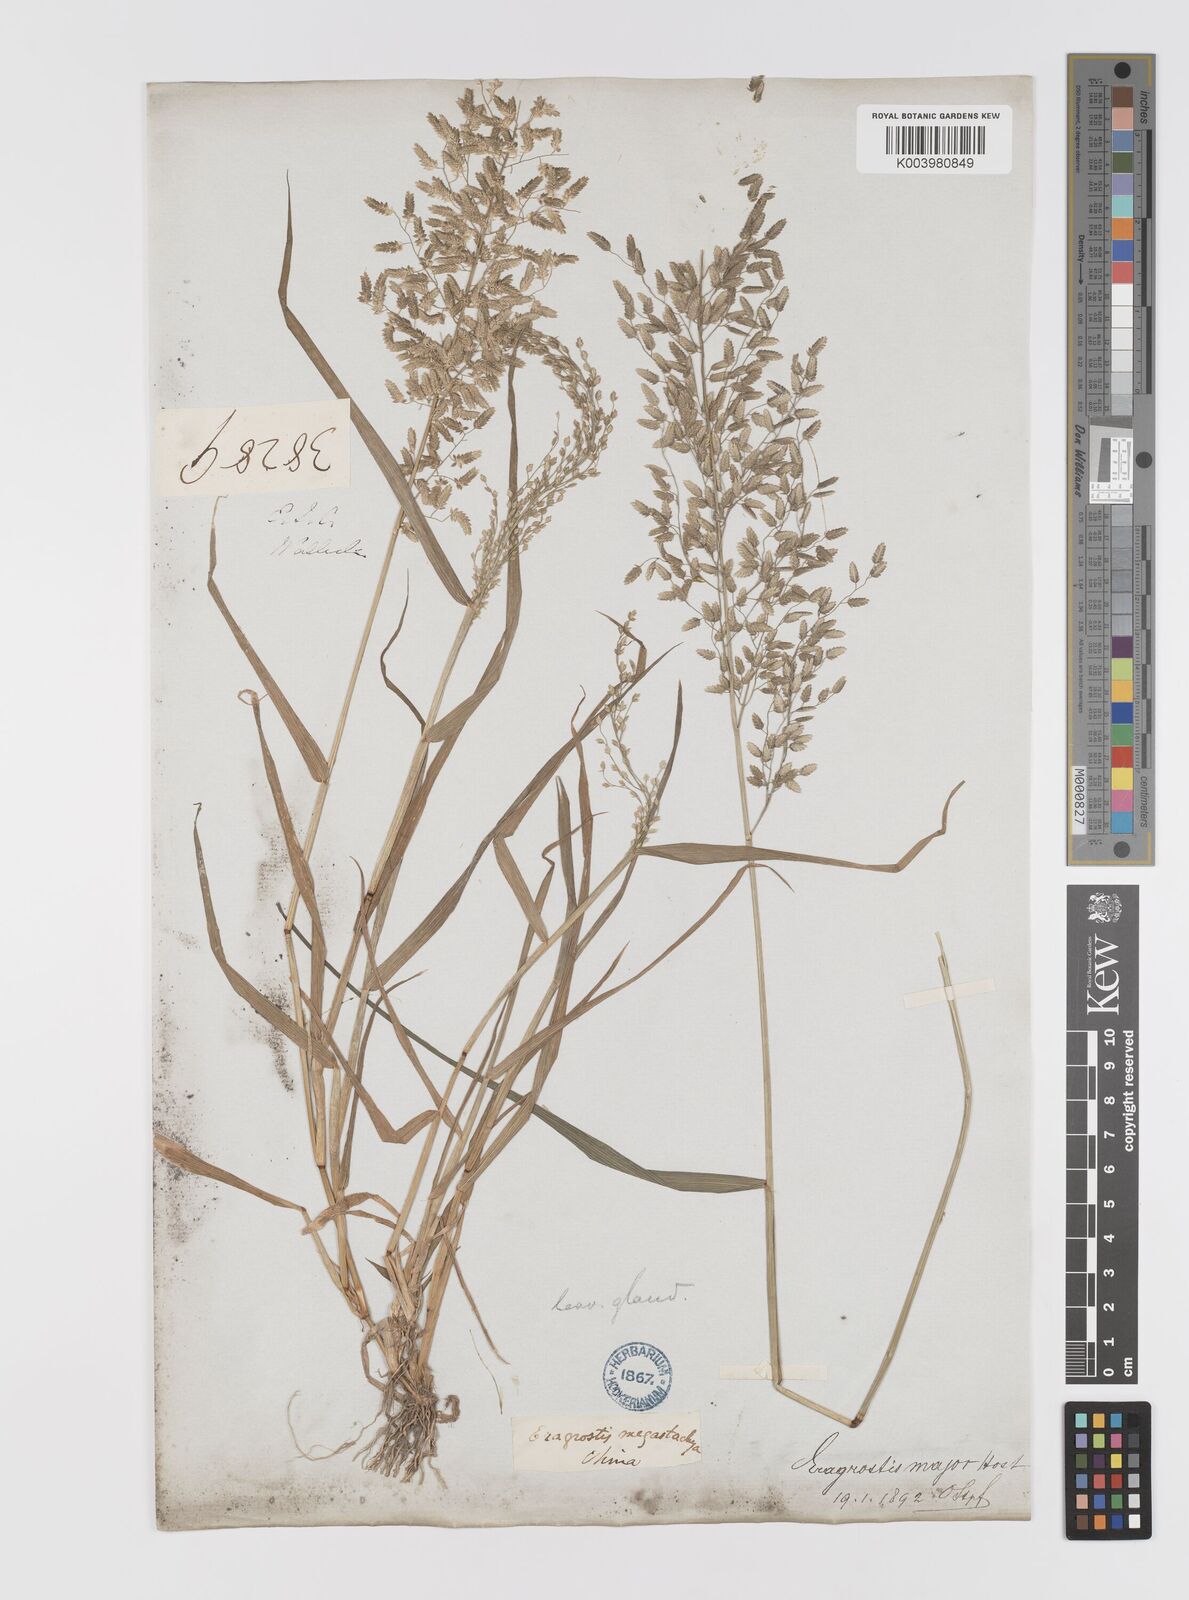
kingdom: Plantae
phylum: Tracheophyta
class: Liliopsida
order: Poales
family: Poaceae
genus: Eragrostis
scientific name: Eragrostis cilianensis
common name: Stinkgrass
